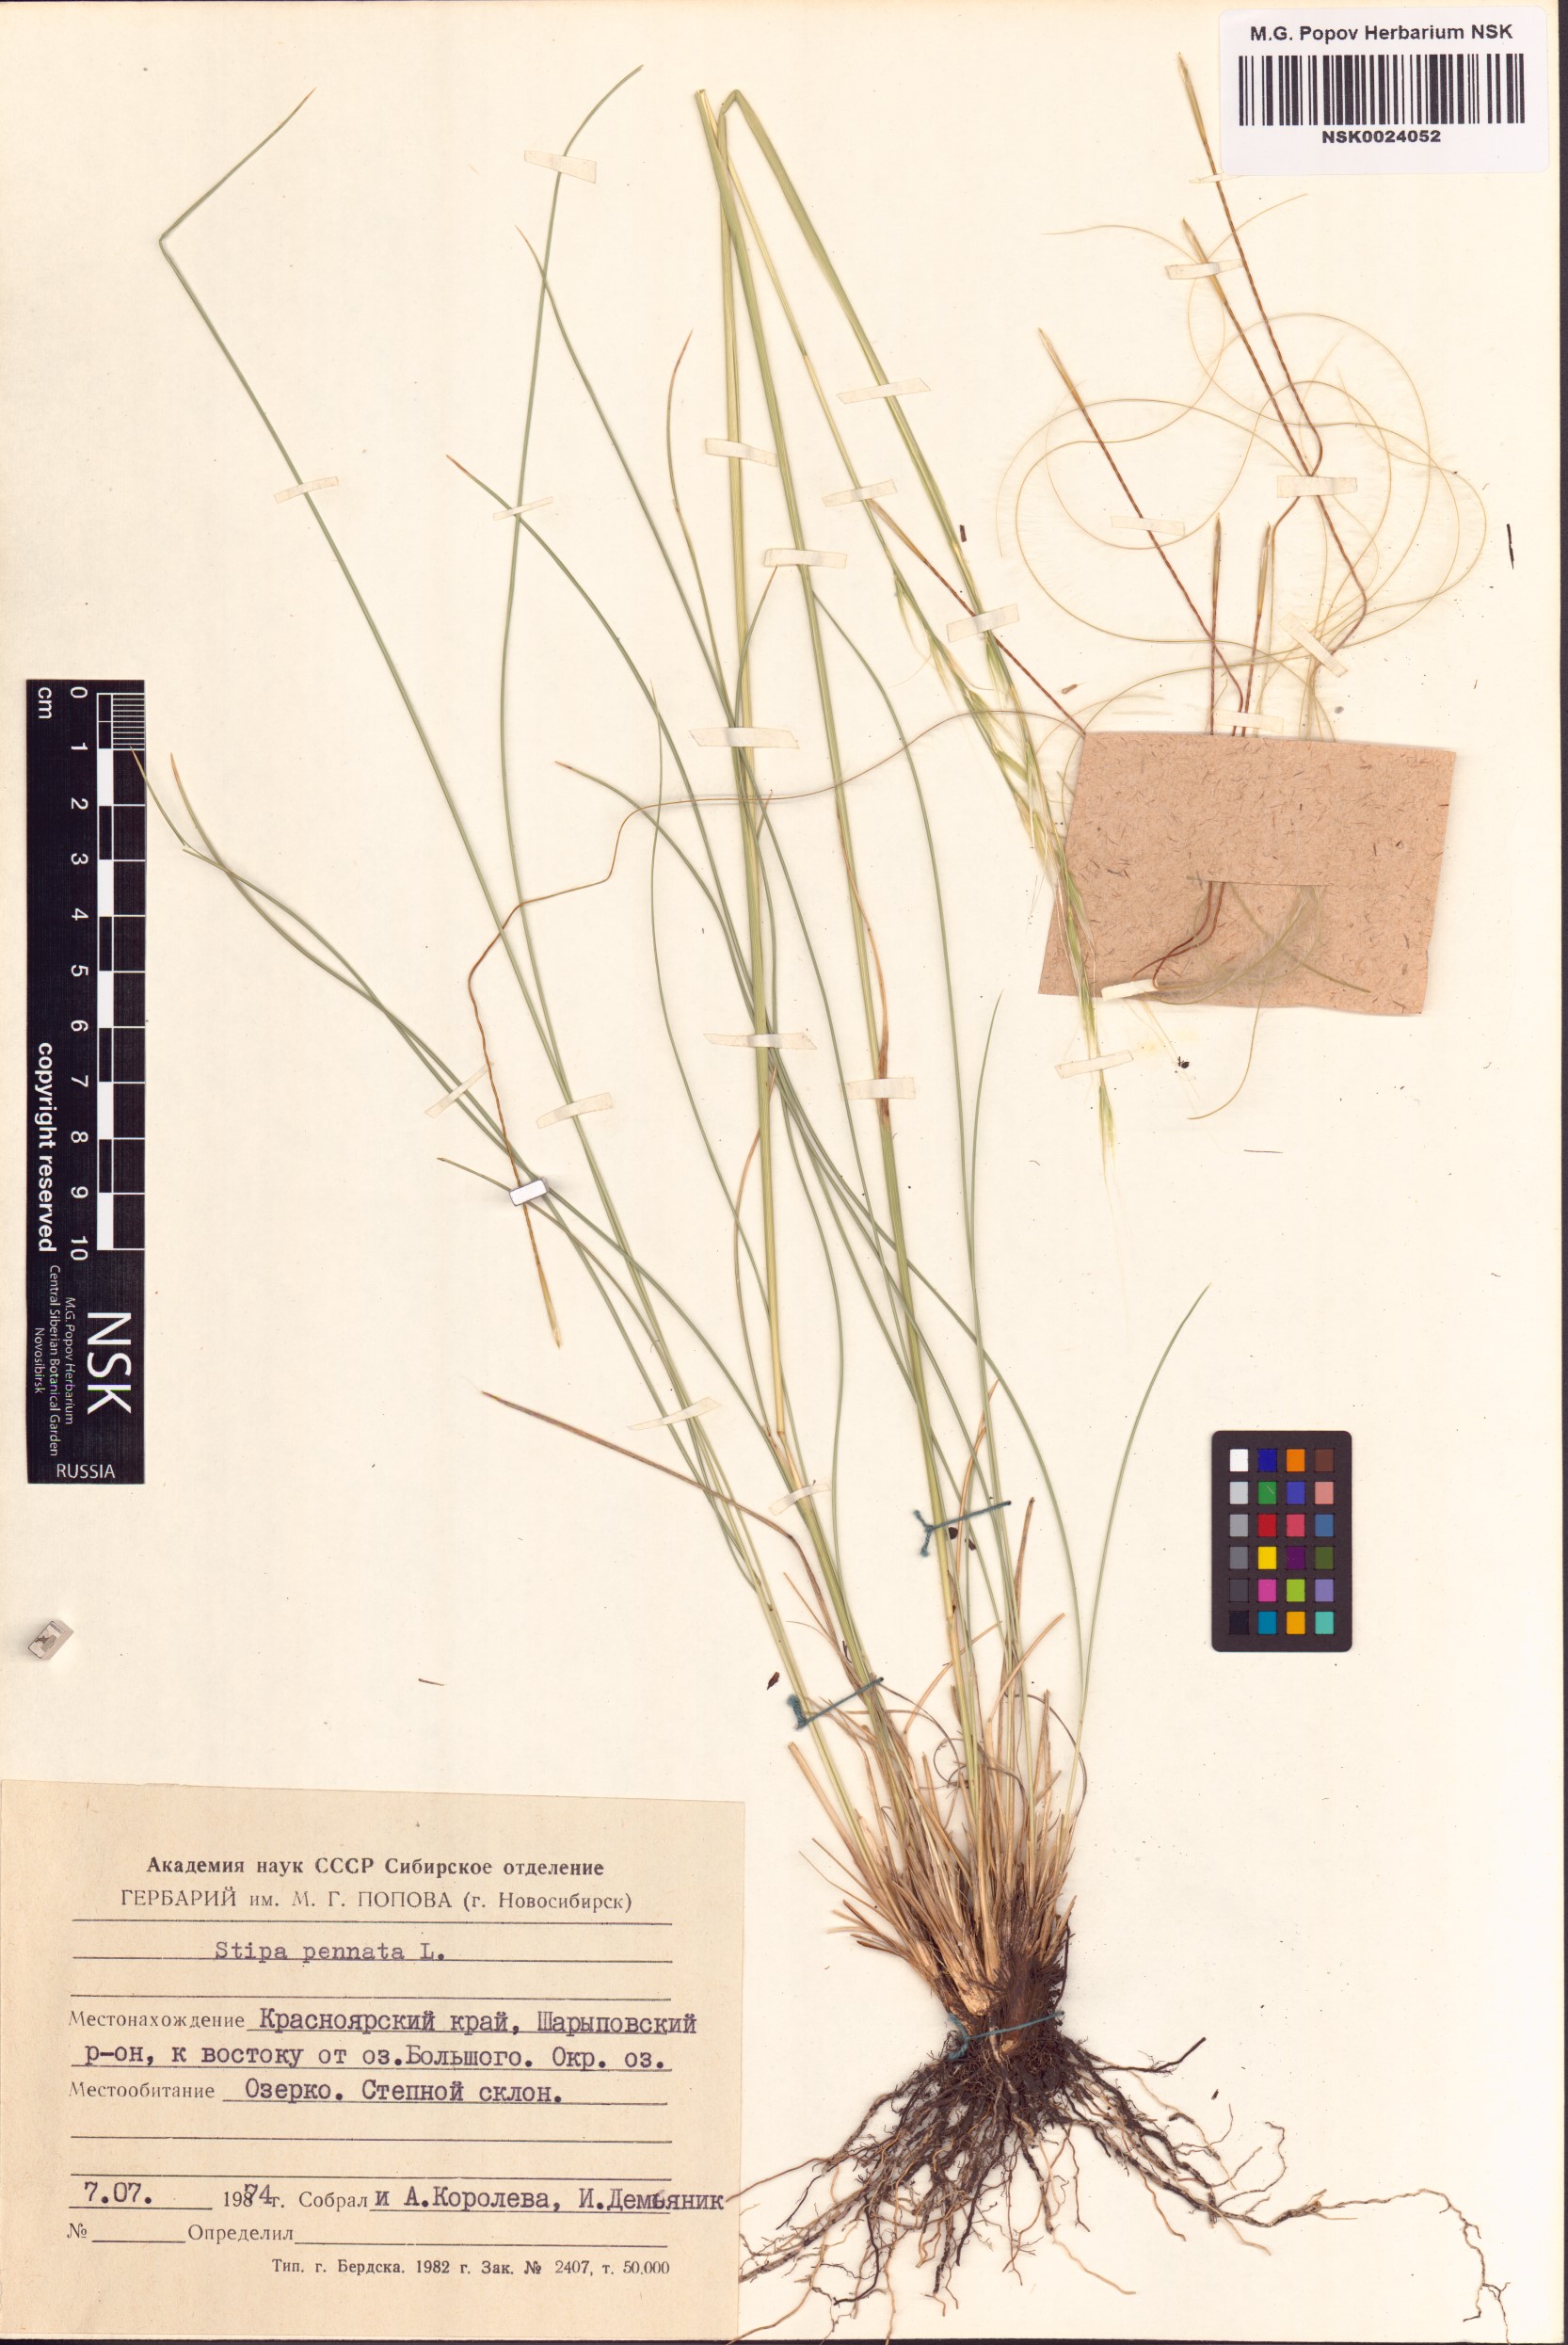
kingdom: Plantae
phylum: Tracheophyta
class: Liliopsida
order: Poales
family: Poaceae
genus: Stipa
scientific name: Stipa pennata
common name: European feather grass
